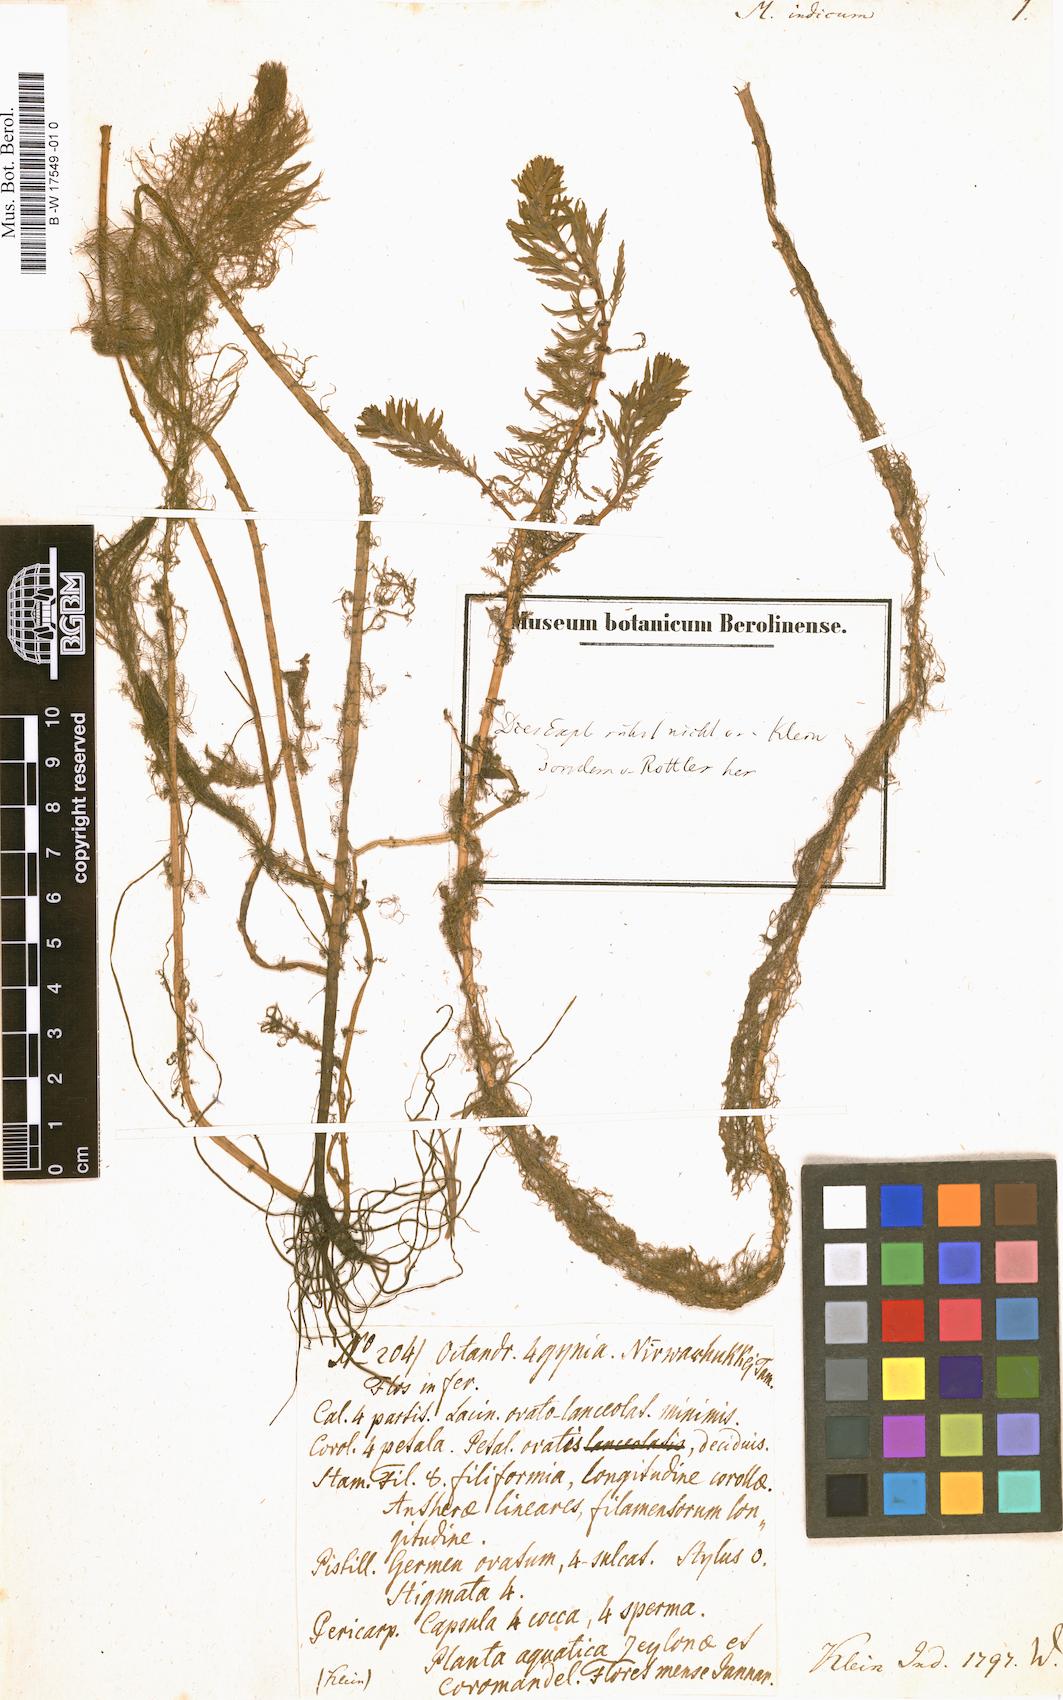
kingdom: Plantae
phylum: Tracheophyta
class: Magnoliopsida
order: Saxifragales
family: Haloragaceae
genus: Myriophyllum
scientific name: Myriophyllum indicum
